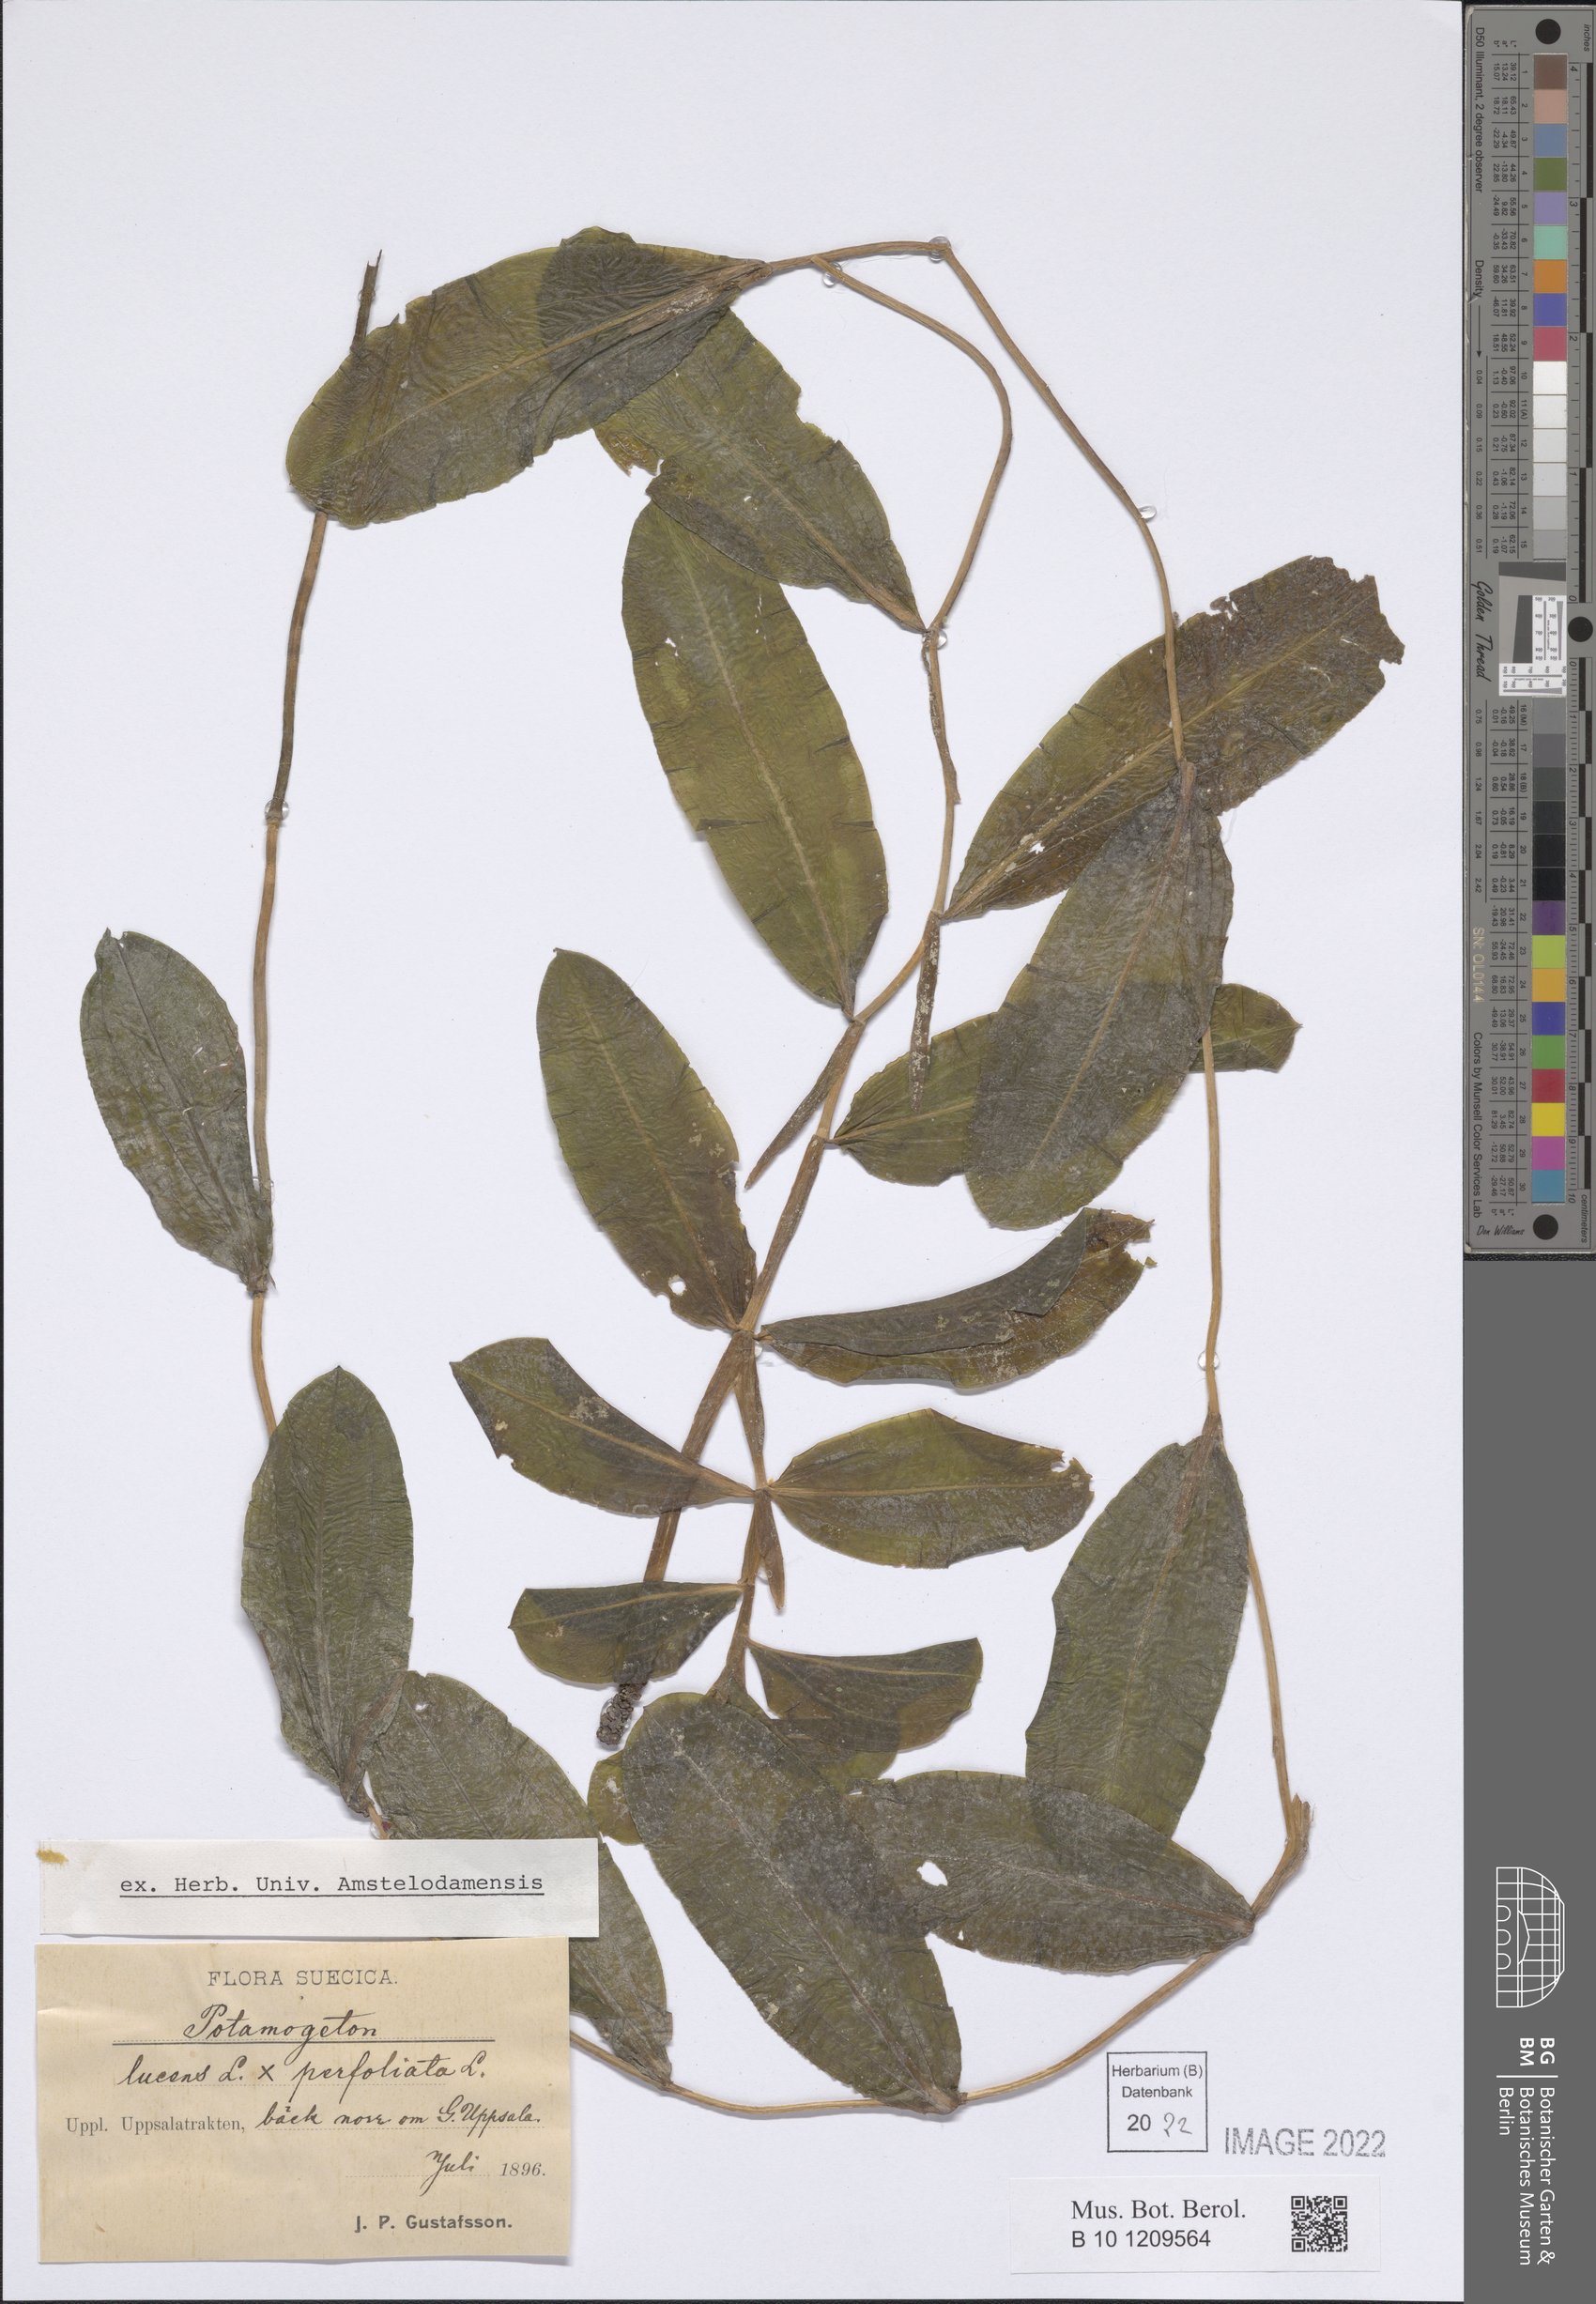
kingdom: Plantae
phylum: Tracheophyta
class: Liliopsida
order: Alismatales
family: Potamogetonaceae
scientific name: Potamogetonaceae
